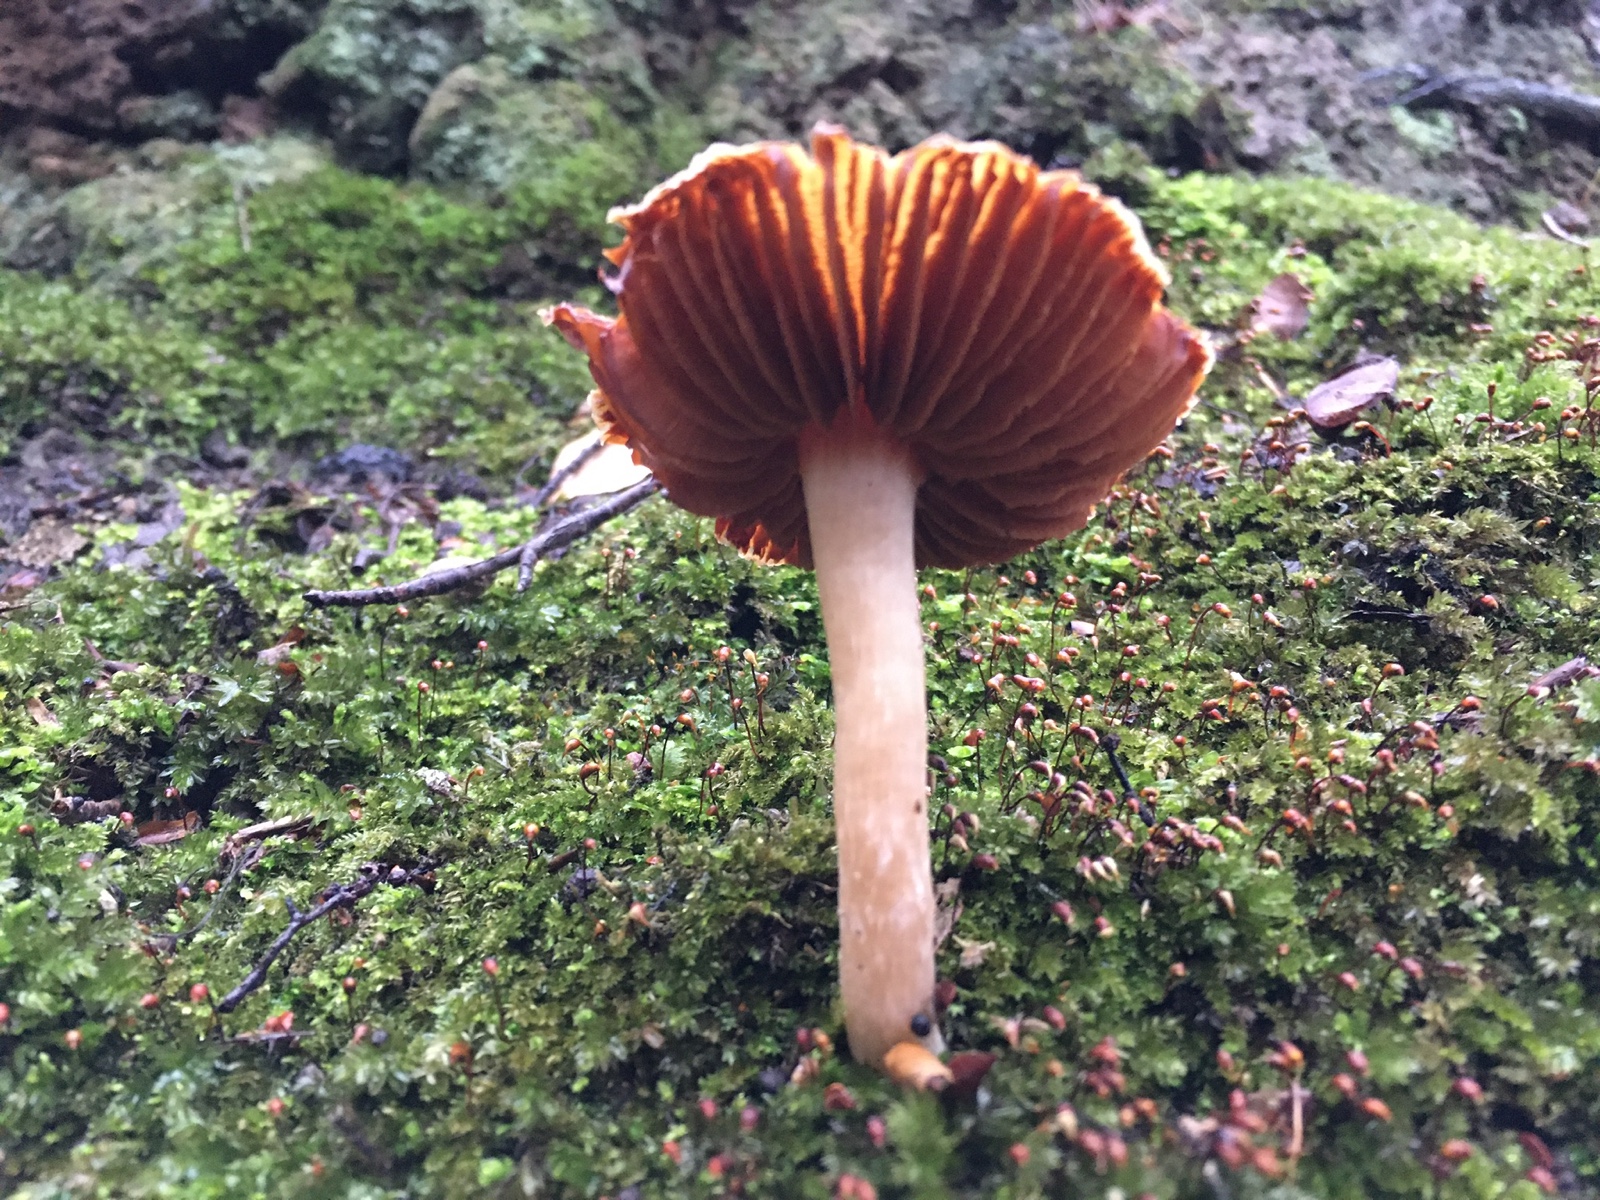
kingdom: Fungi
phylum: Basidiomycota
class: Agaricomycetes
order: Agaricales
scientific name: Agaricales
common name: champignonordenen
